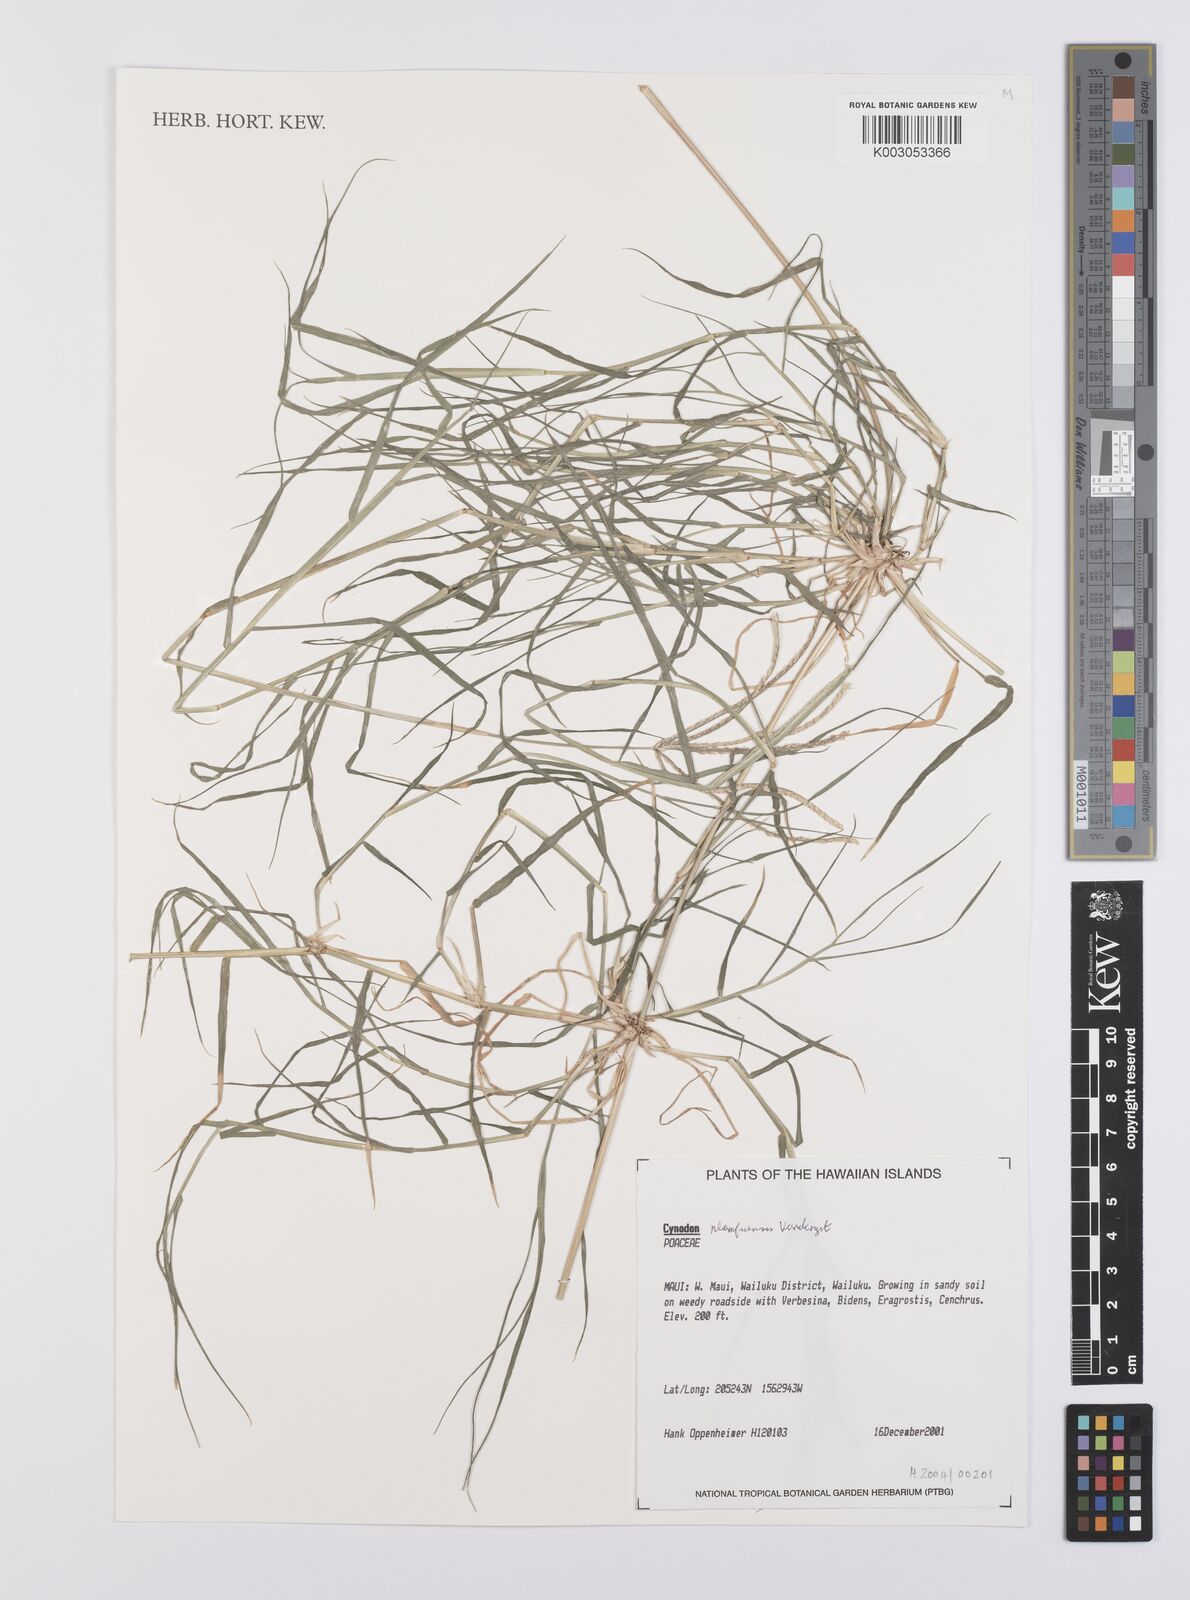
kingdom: Plantae
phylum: Tracheophyta
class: Liliopsida
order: Poales
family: Poaceae
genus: Cynodon
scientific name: Cynodon nlemfuensis
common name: African bermudagrass
